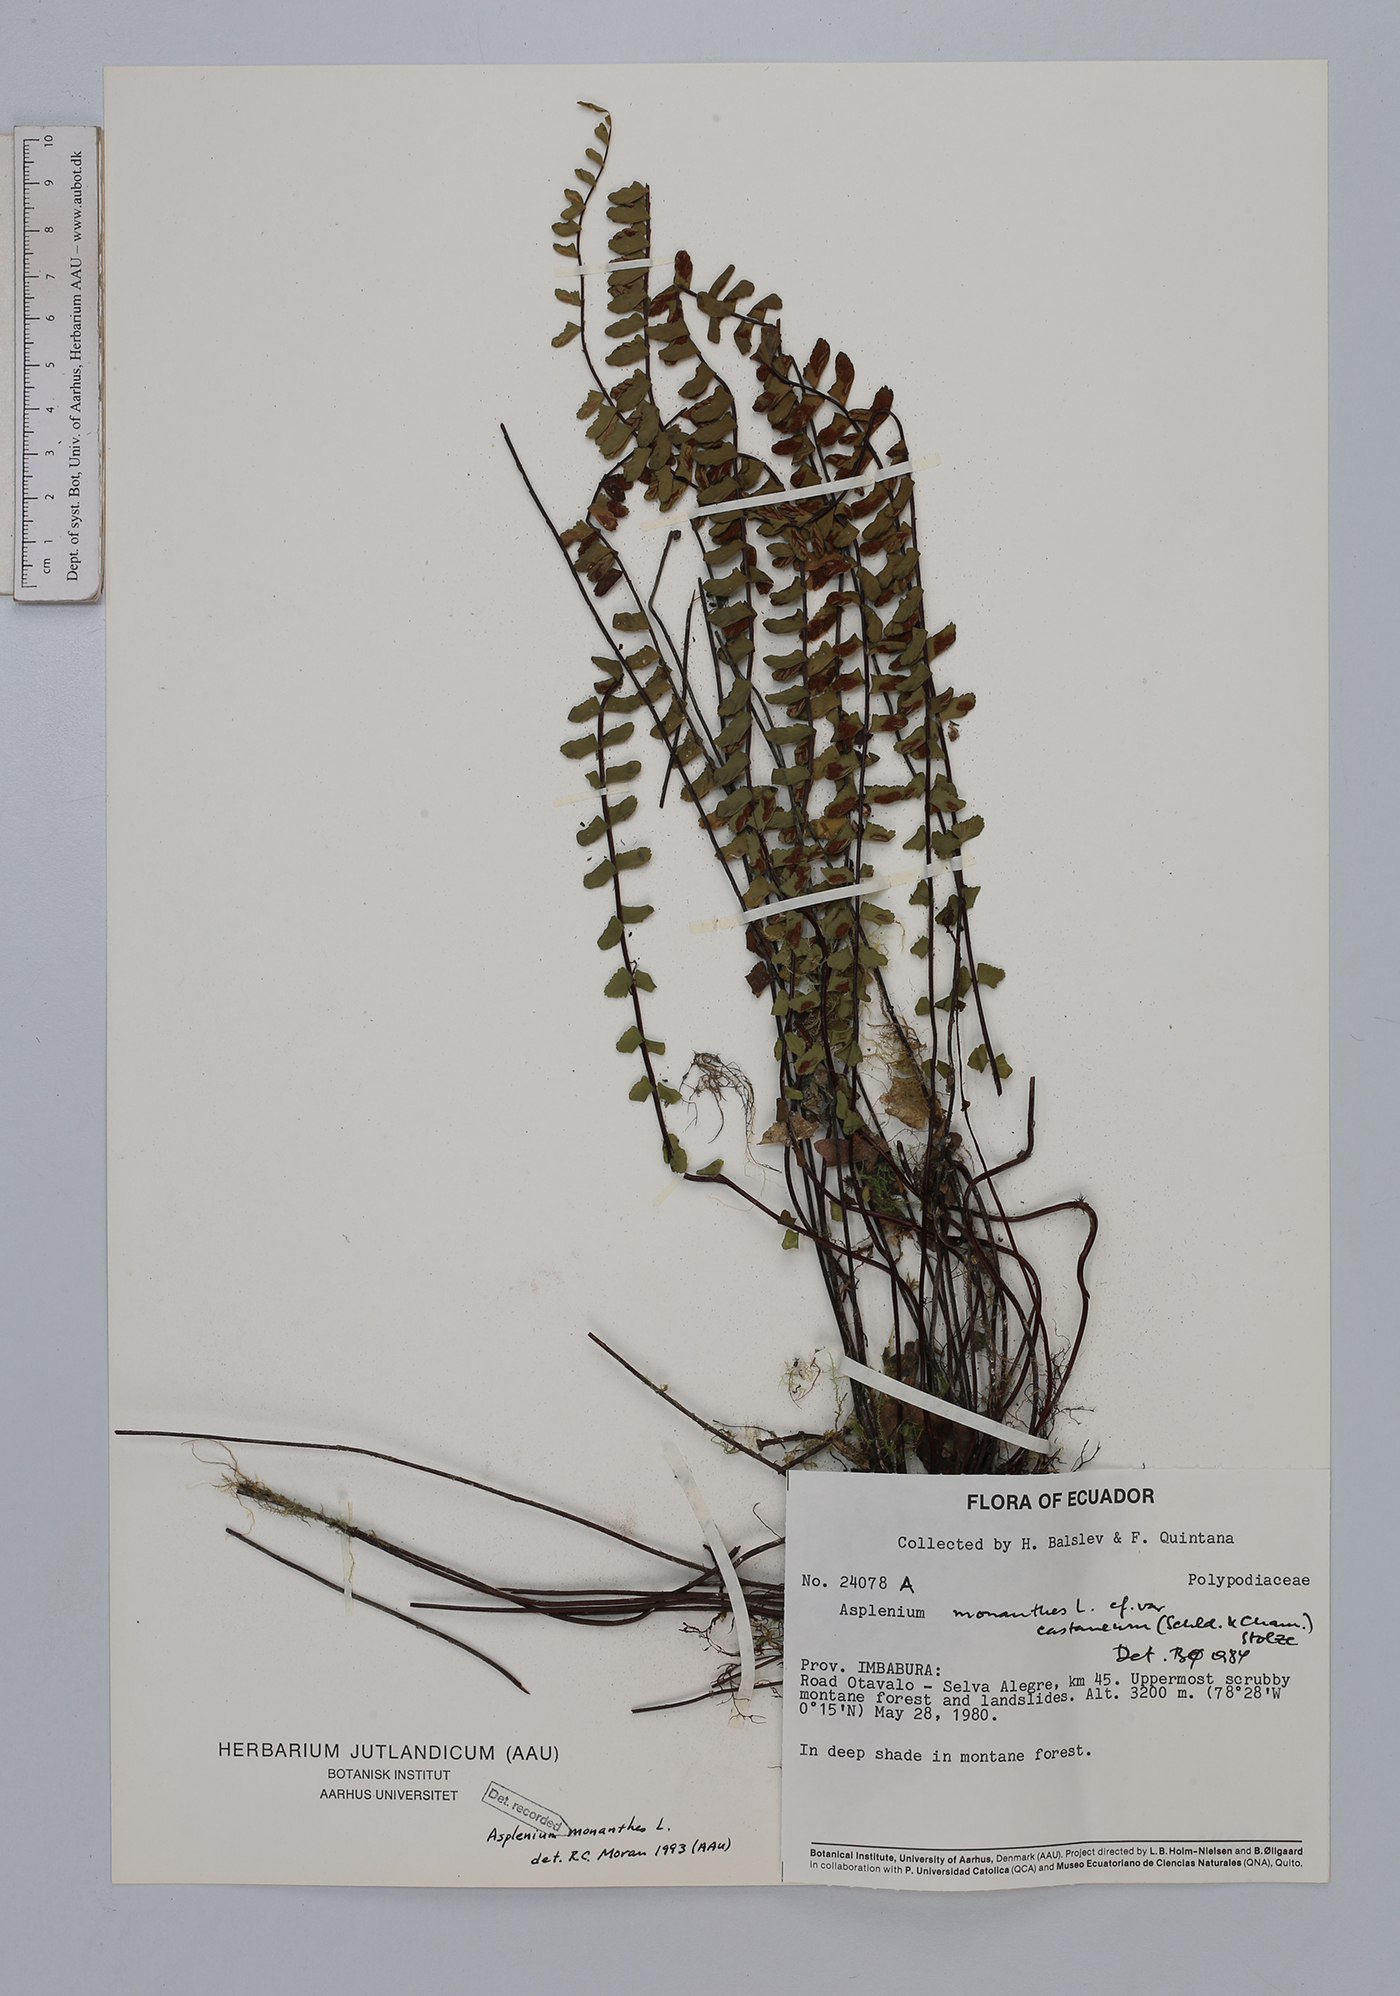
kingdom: Plantae
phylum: Tracheophyta
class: Polypodiopsida
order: Polypodiales
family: Aspleniaceae
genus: Asplenium
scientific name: Asplenium monanthes
